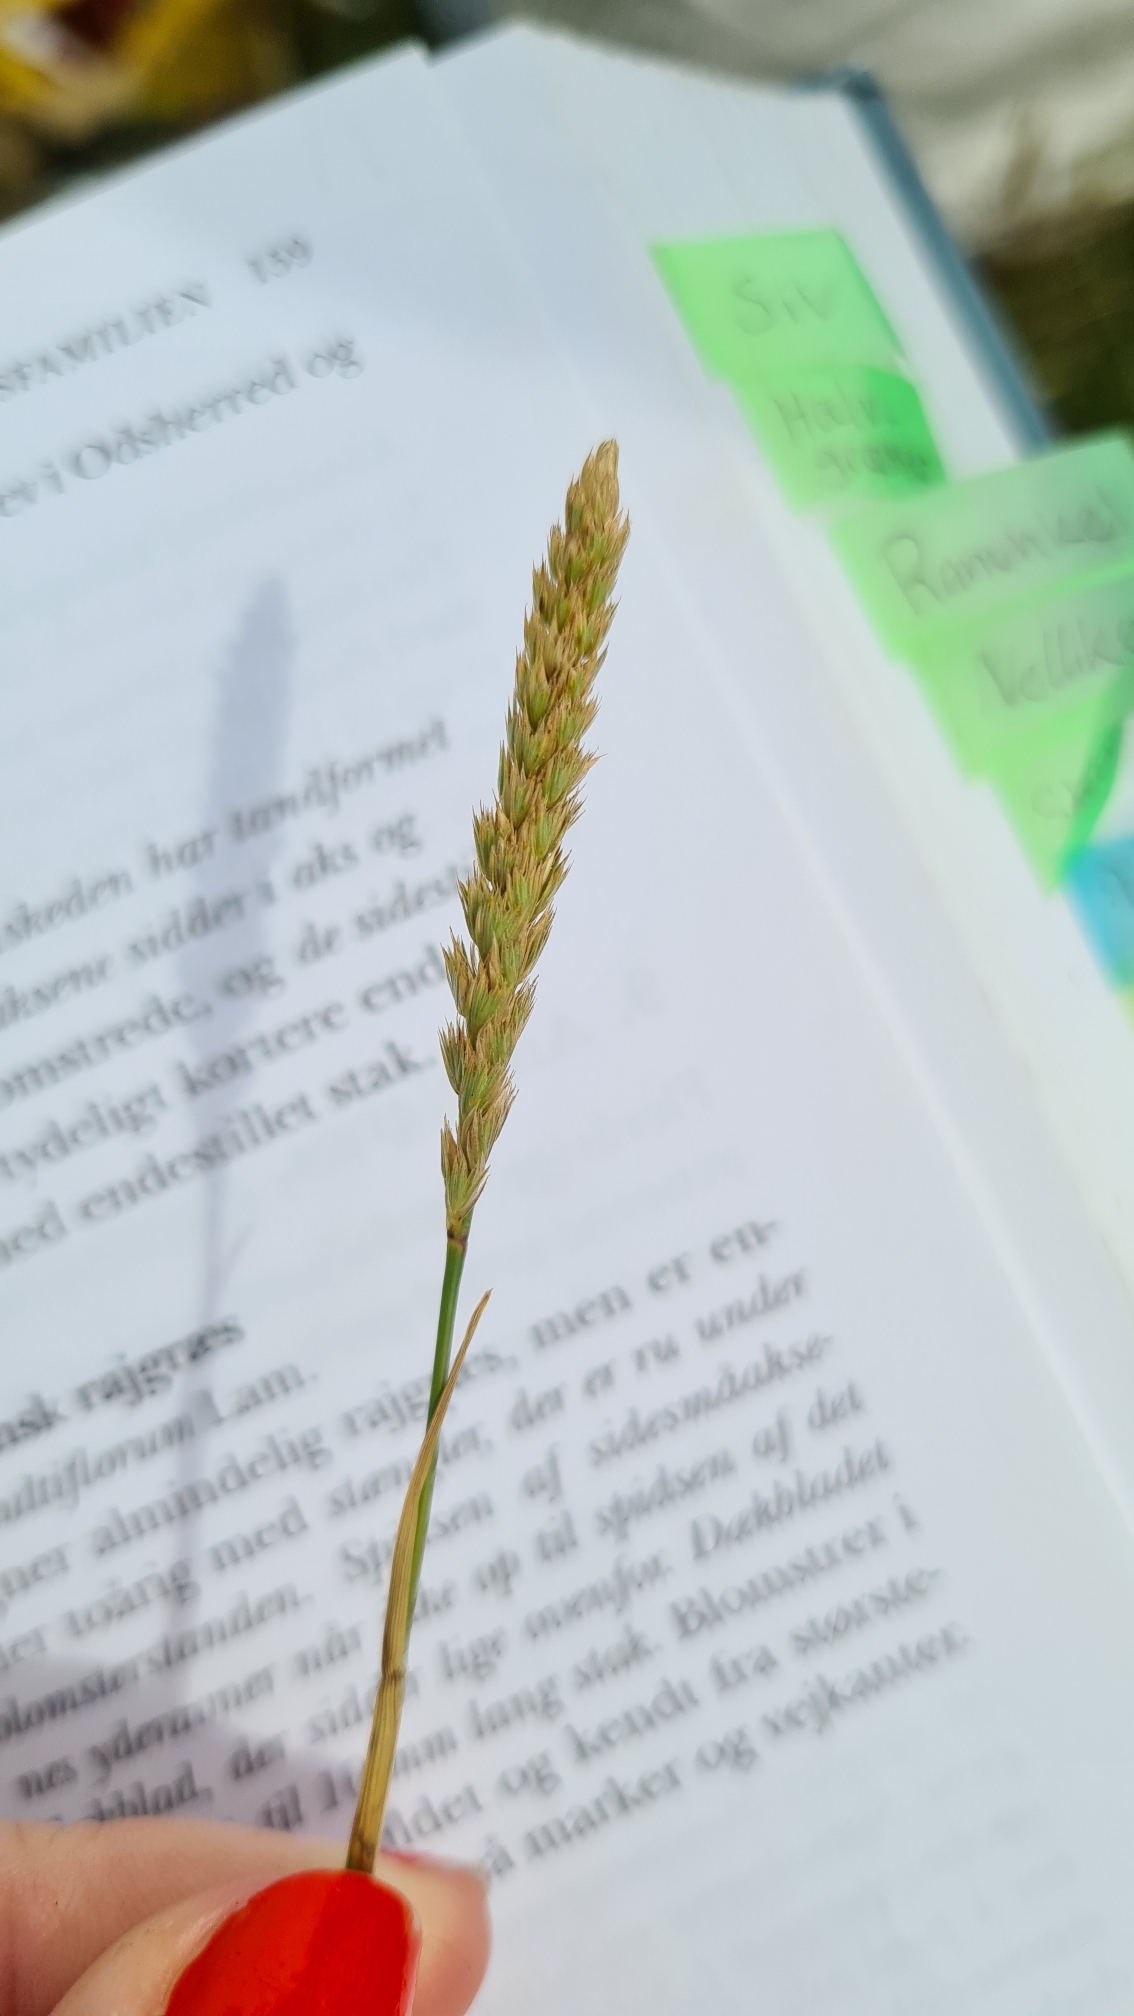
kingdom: Plantae
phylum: Tracheophyta
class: Liliopsida
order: Poales
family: Poaceae
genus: Cynosurus
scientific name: Cynosurus cristatus
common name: Kamgræs
